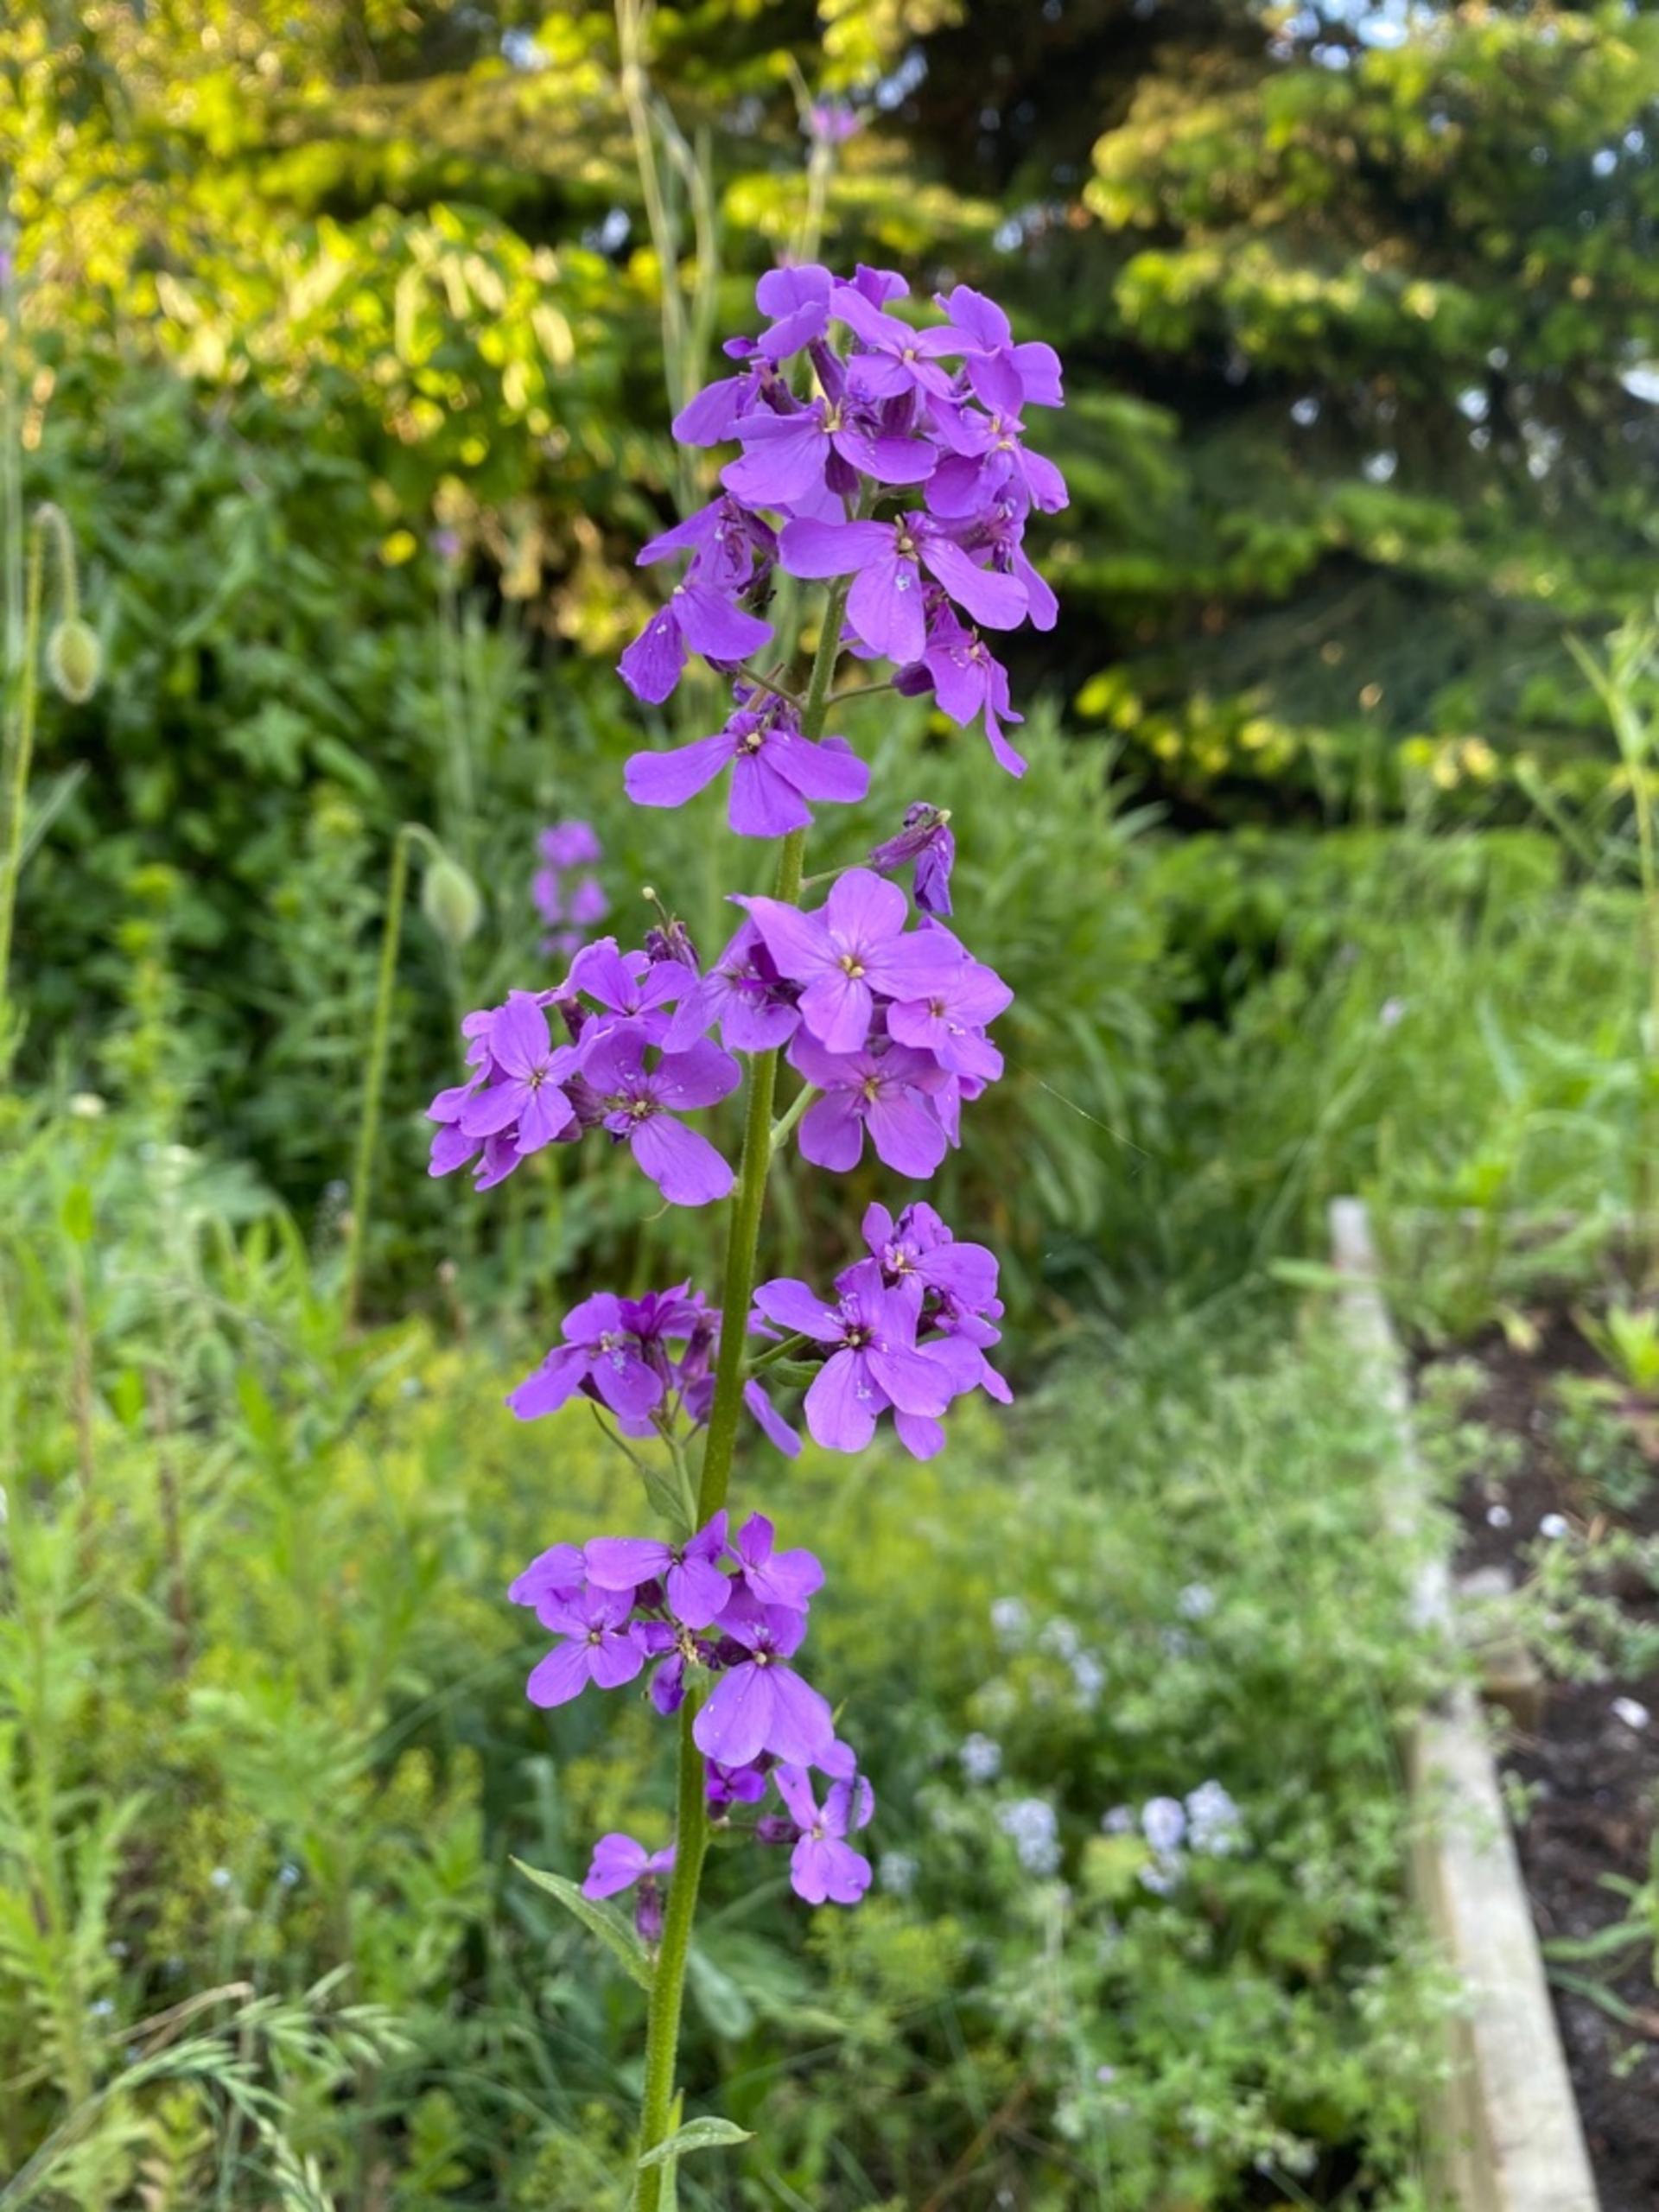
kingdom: Plantae
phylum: Tracheophyta
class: Magnoliopsida
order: Brassicales
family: Brassicaceae
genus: Hesperis
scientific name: Hesperis matronalis
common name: Aftenstjerne
